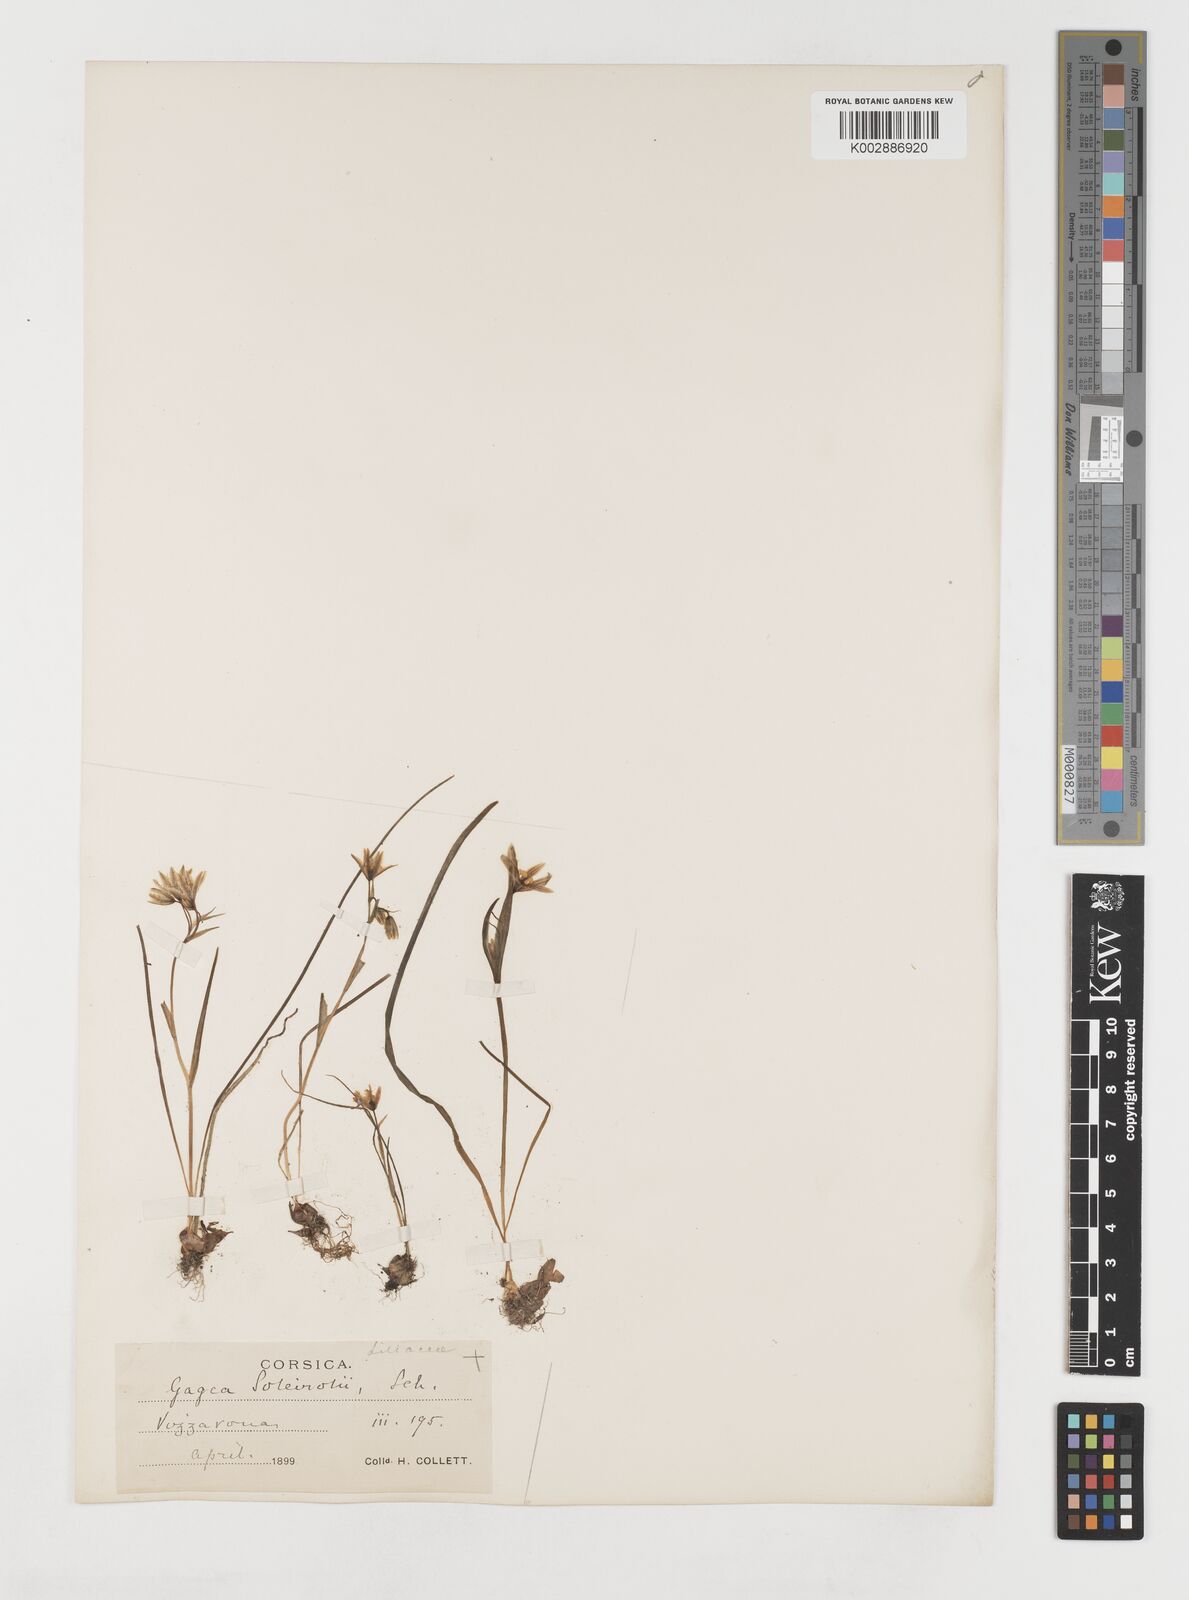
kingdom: Plantae
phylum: Tracheophyta
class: Liliopsida
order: Liliales
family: Liliaceae
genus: Gagea
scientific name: Gagea soleirolii
